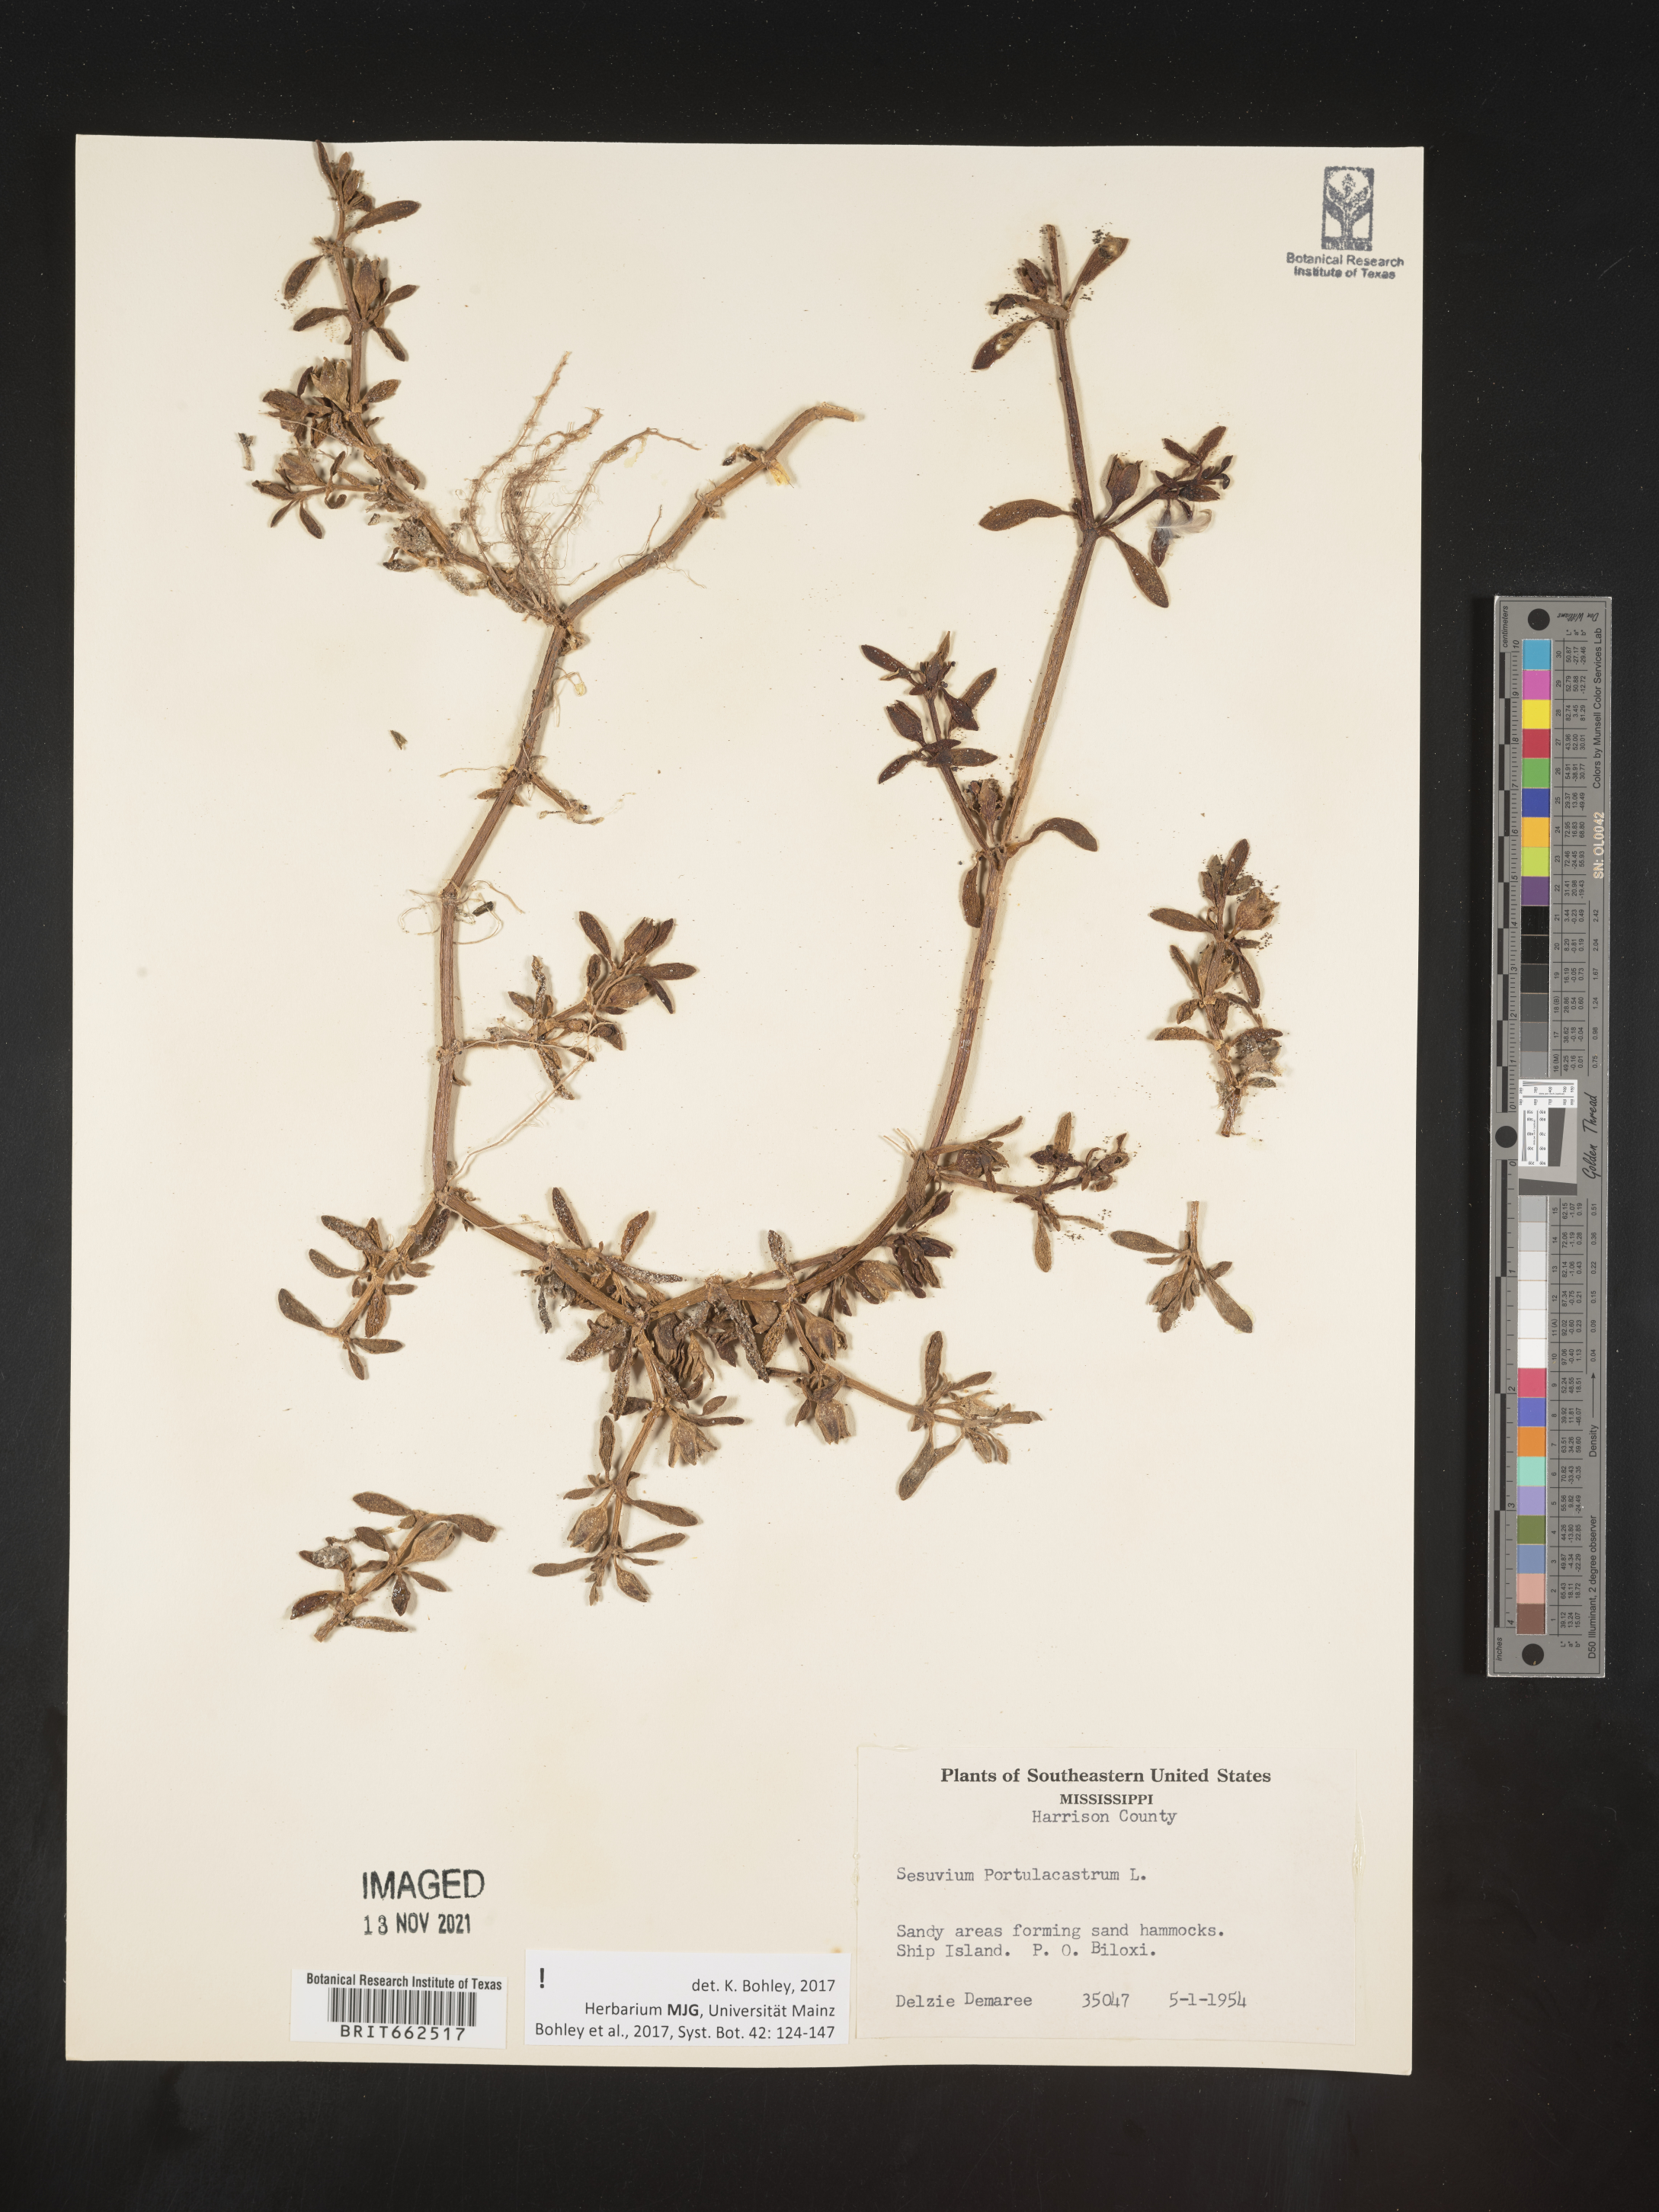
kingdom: Plantae
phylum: Tracheophyta
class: Magnoliopsida
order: Caryophyllales
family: Aizoaceae
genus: Sesuvium
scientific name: Sesuvium portulacastrum
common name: Sea-purslane
